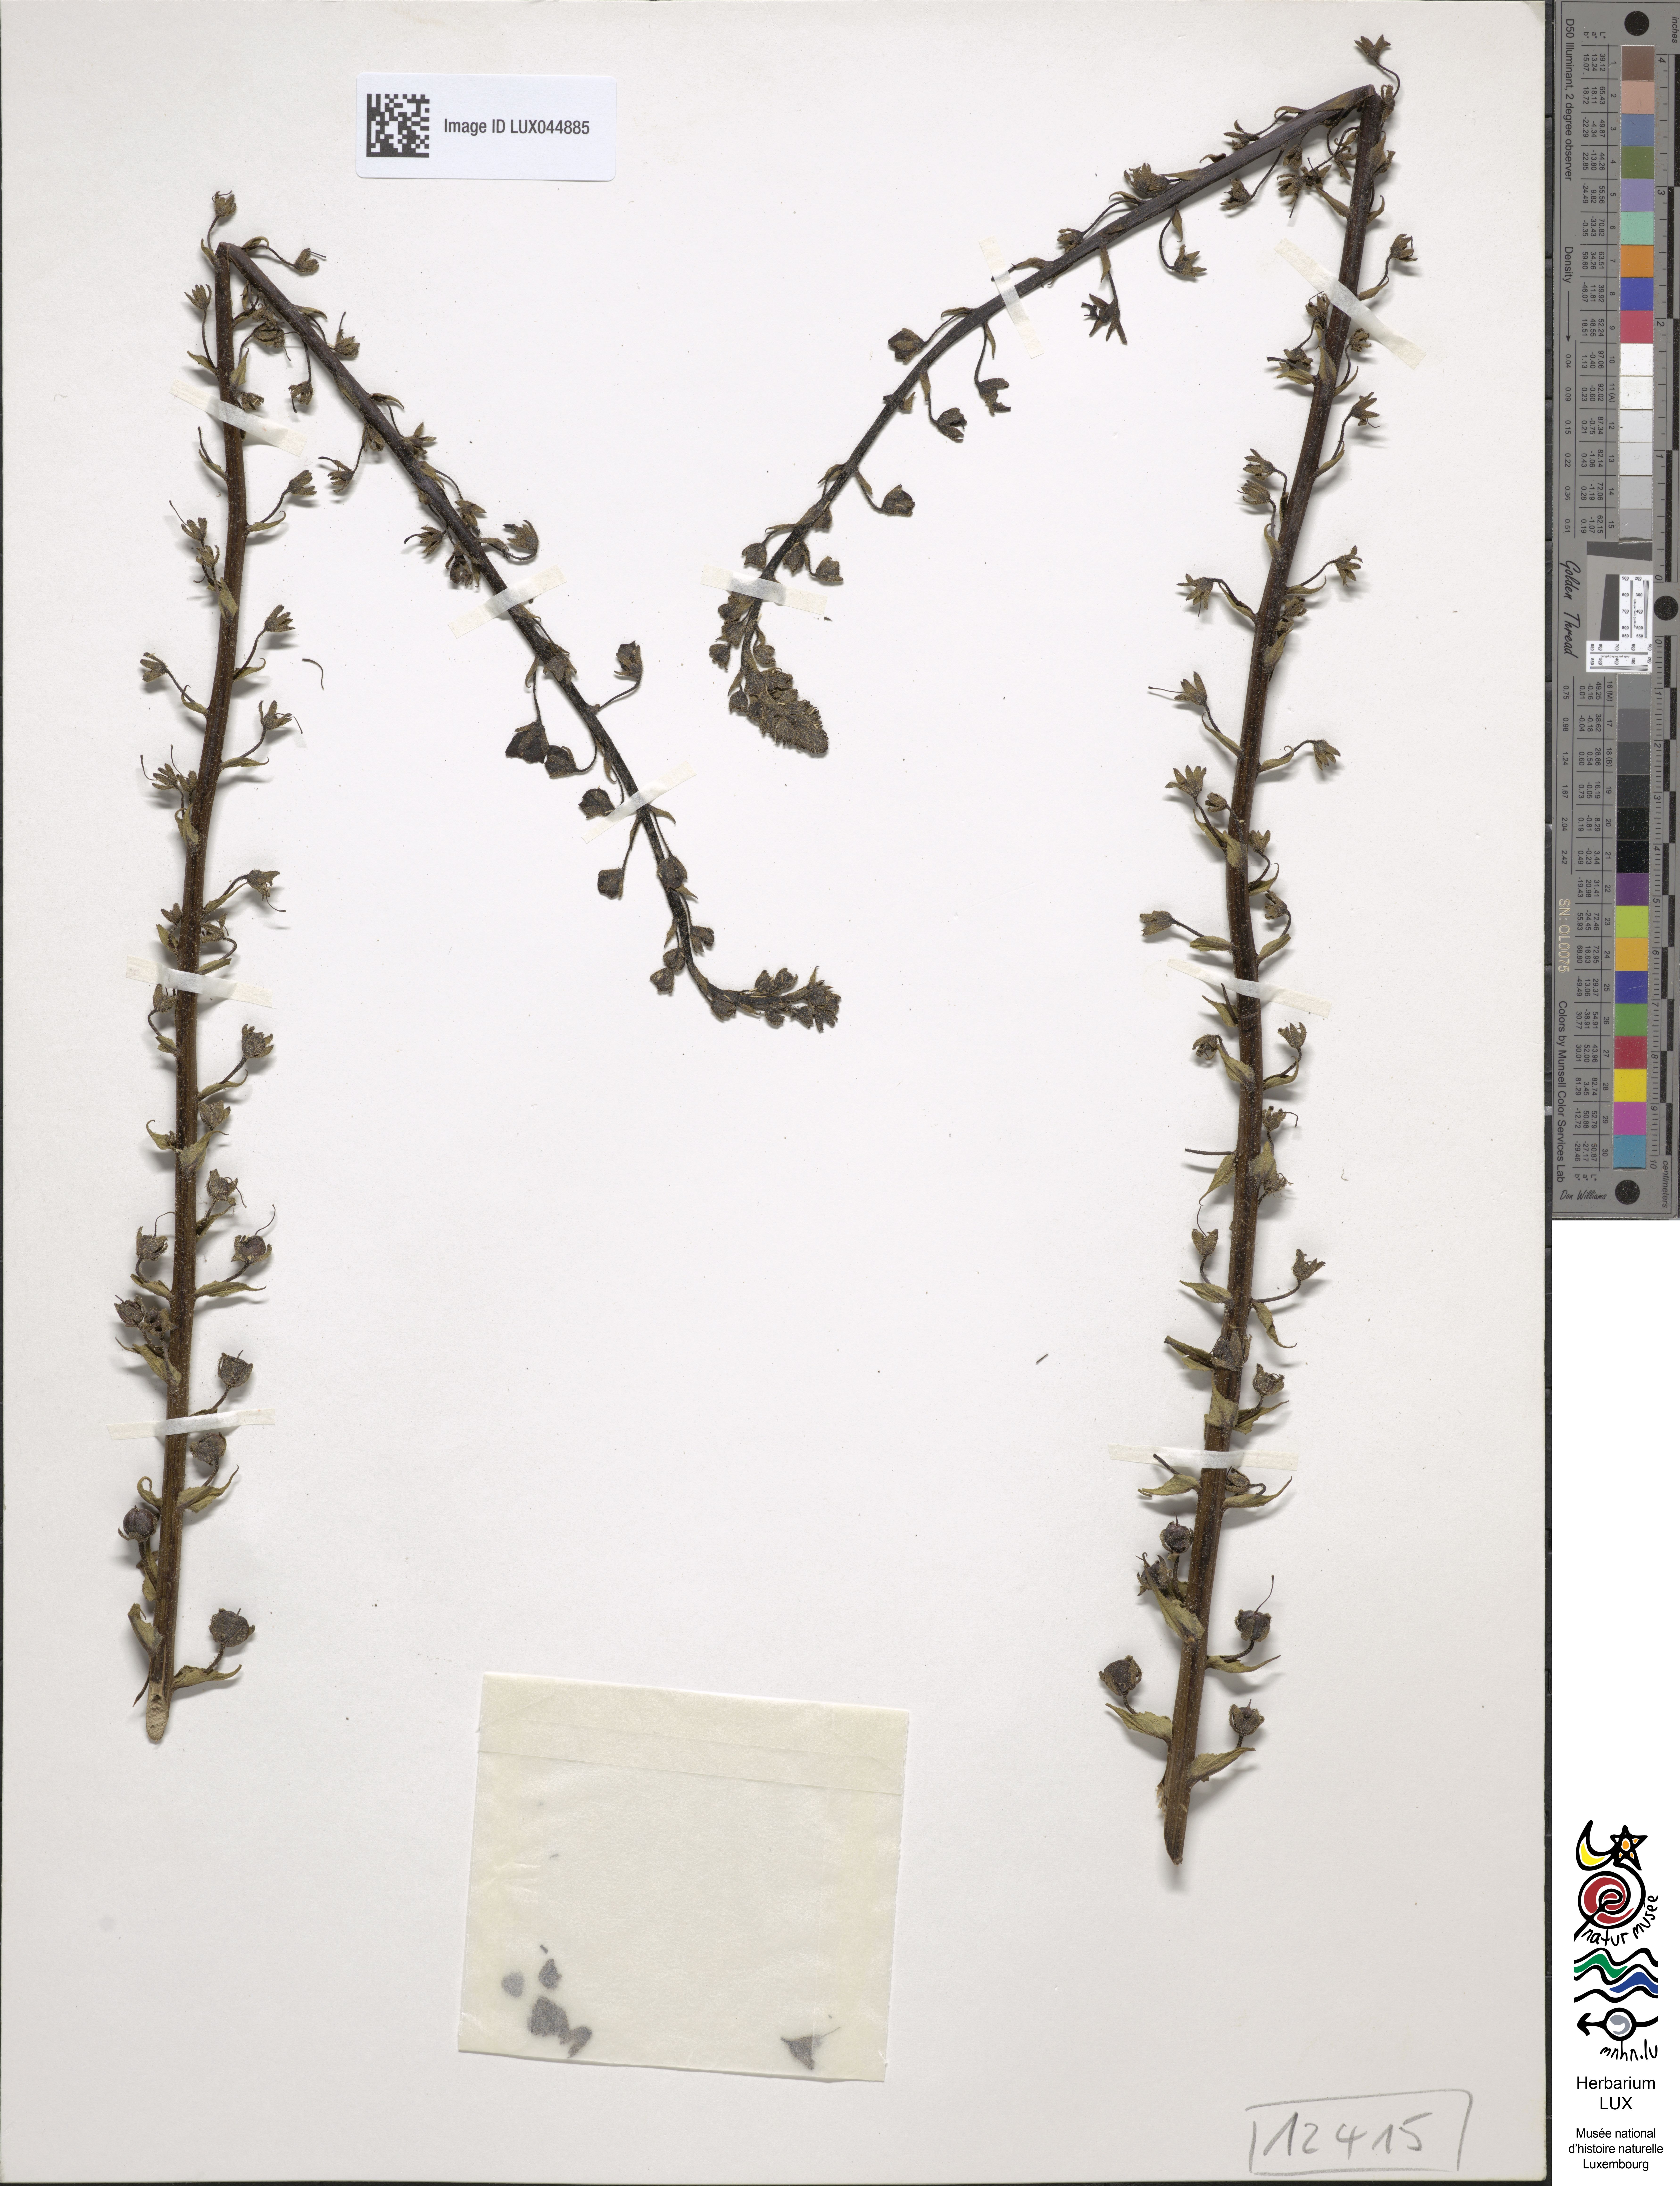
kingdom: Plantae
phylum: Tracheophyta
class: Magnoliopsida
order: Lamiales
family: Scrophulariaceae
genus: Verbascum
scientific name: Verbascum blattaria
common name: Moth mullein
